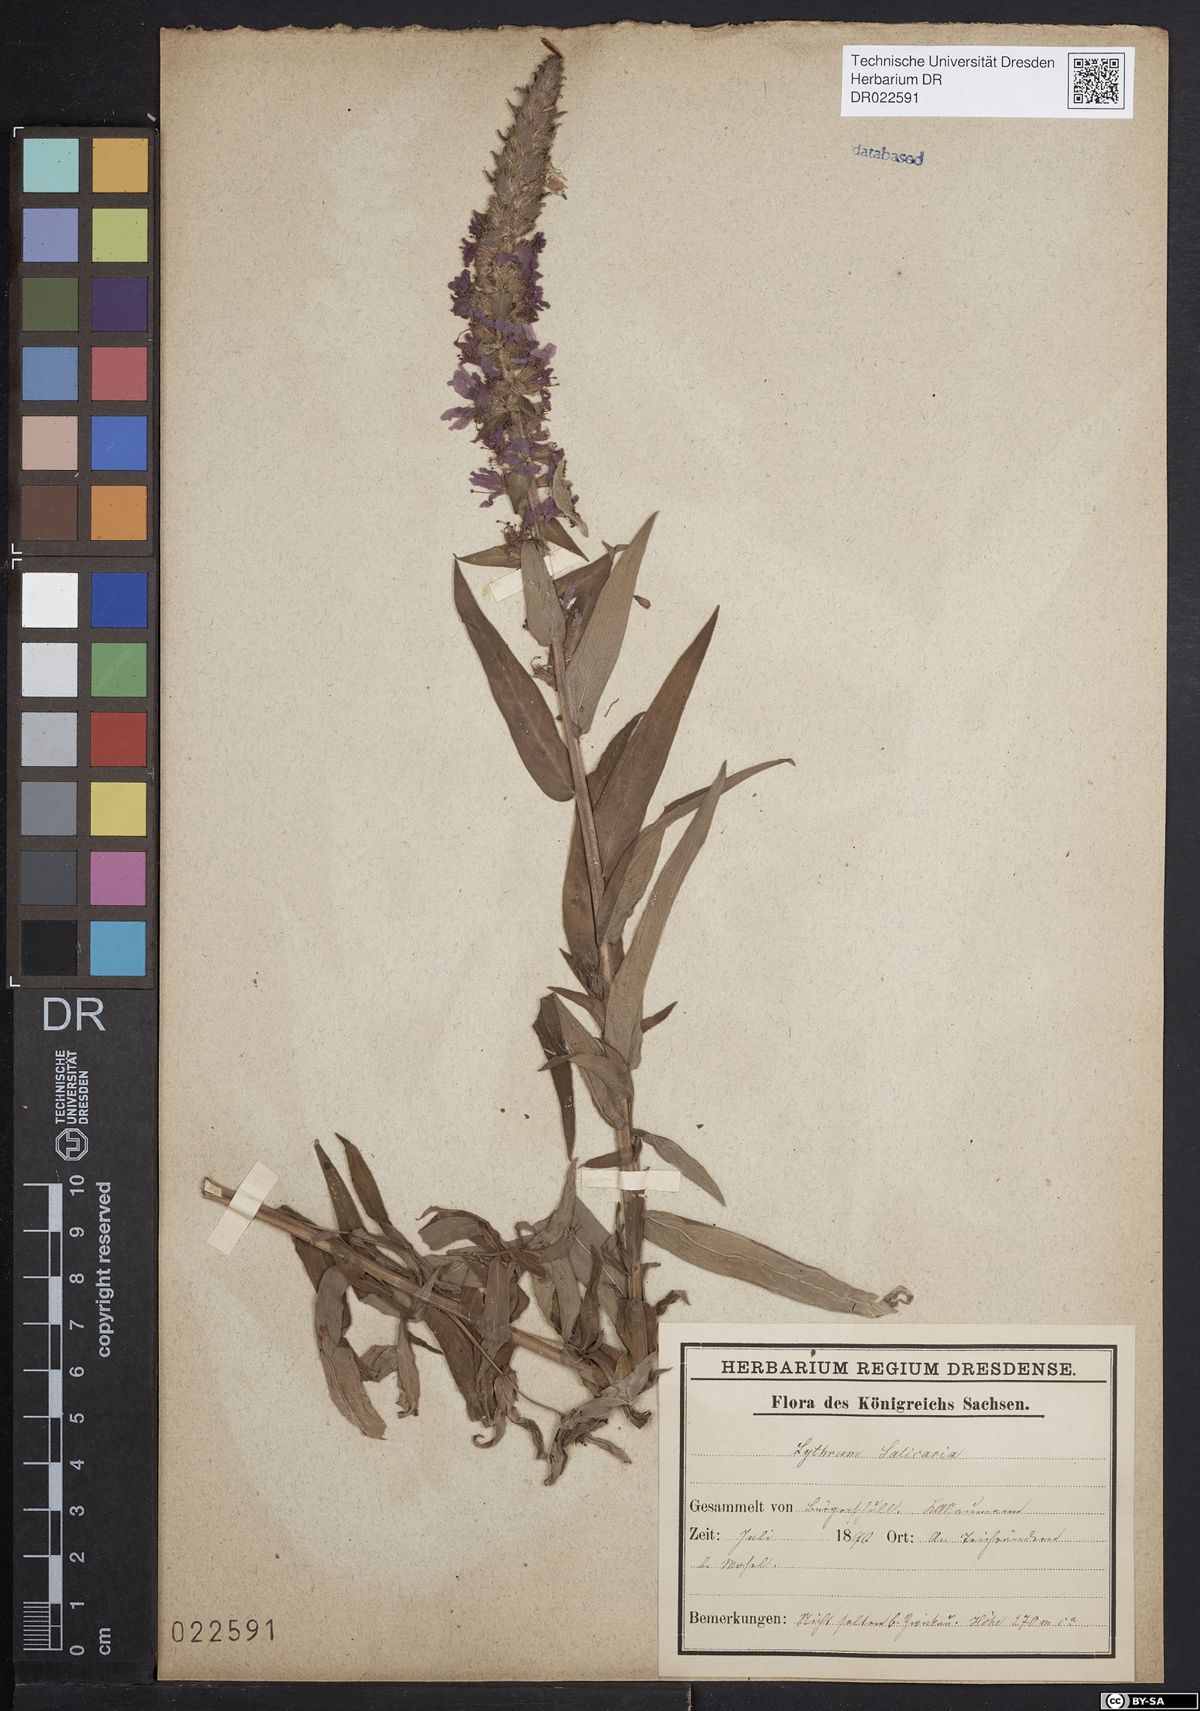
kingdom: Plantae
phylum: Tracheophyta
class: Magnoliopsida
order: Myrtales
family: Lythraceae
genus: Lythrum
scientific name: Lythrum salicaria
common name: Purple loosestrife
